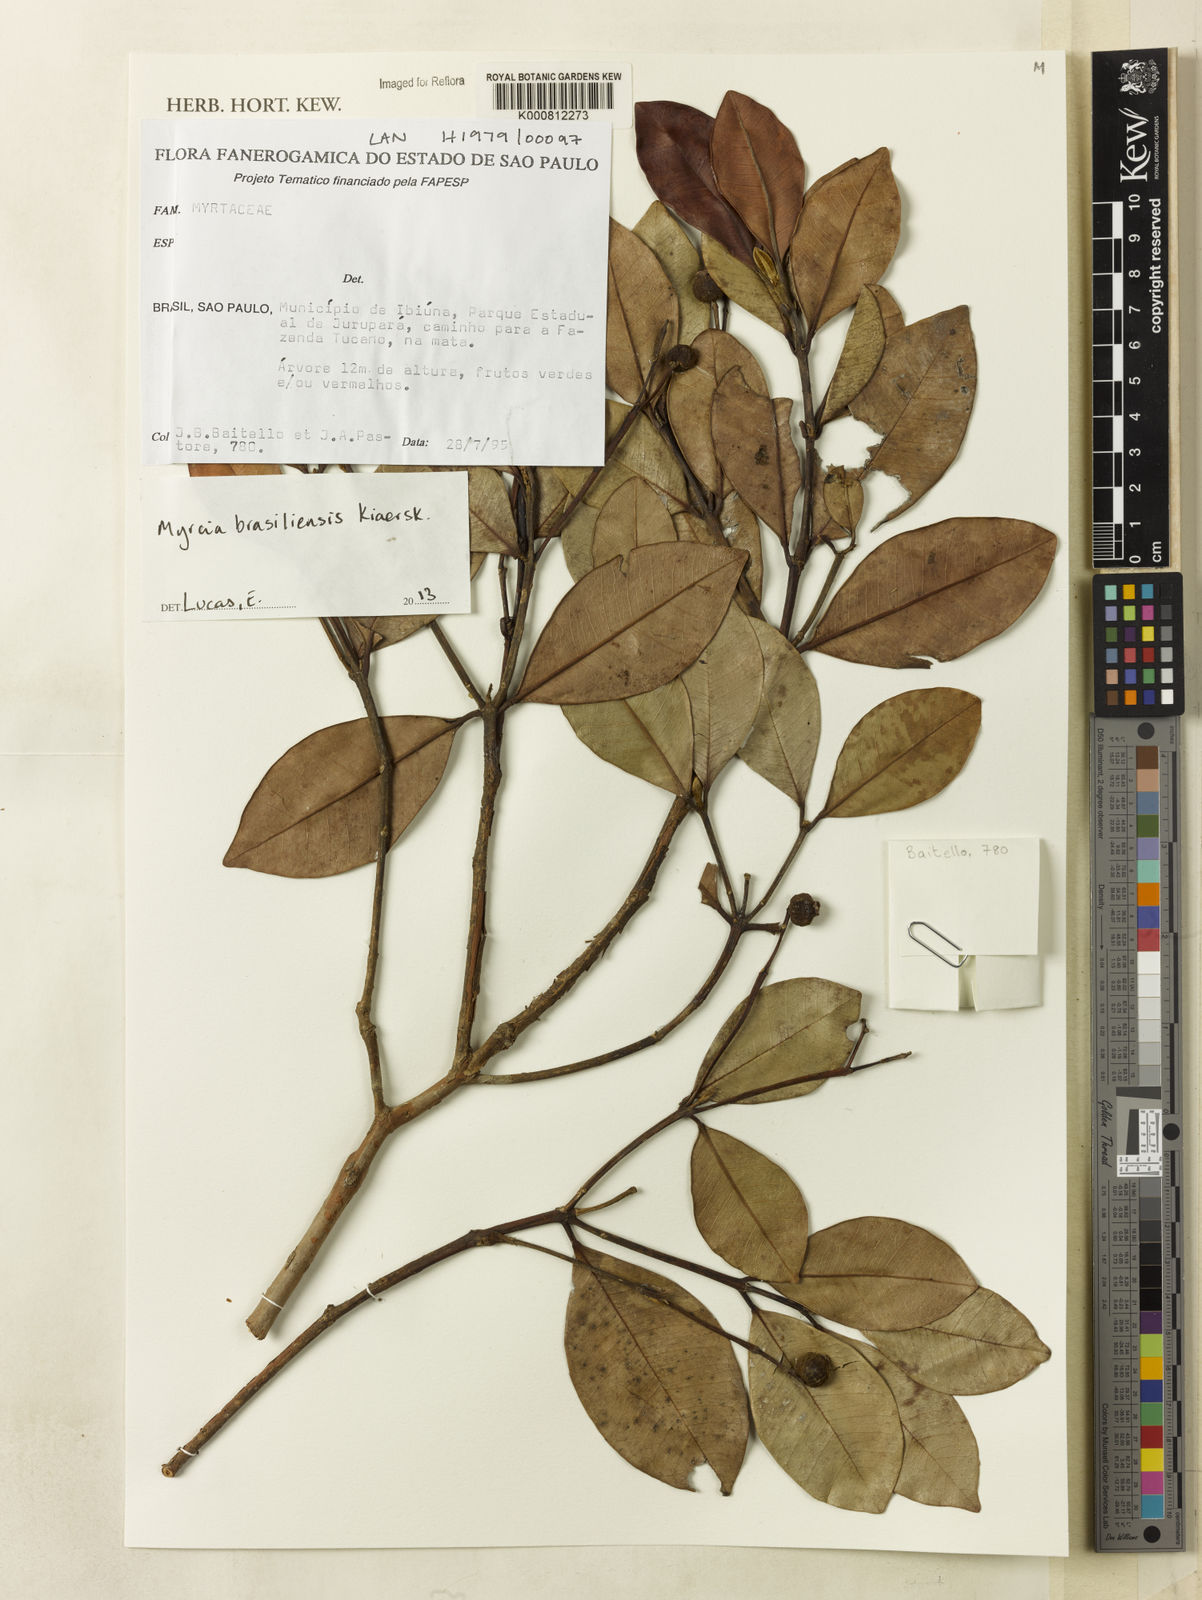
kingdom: Plantae
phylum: Tracheophyta
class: Magnoliopsida
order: Myrtales
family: Myrtaceae
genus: Myrcia
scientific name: Myrcia freyreissiana
